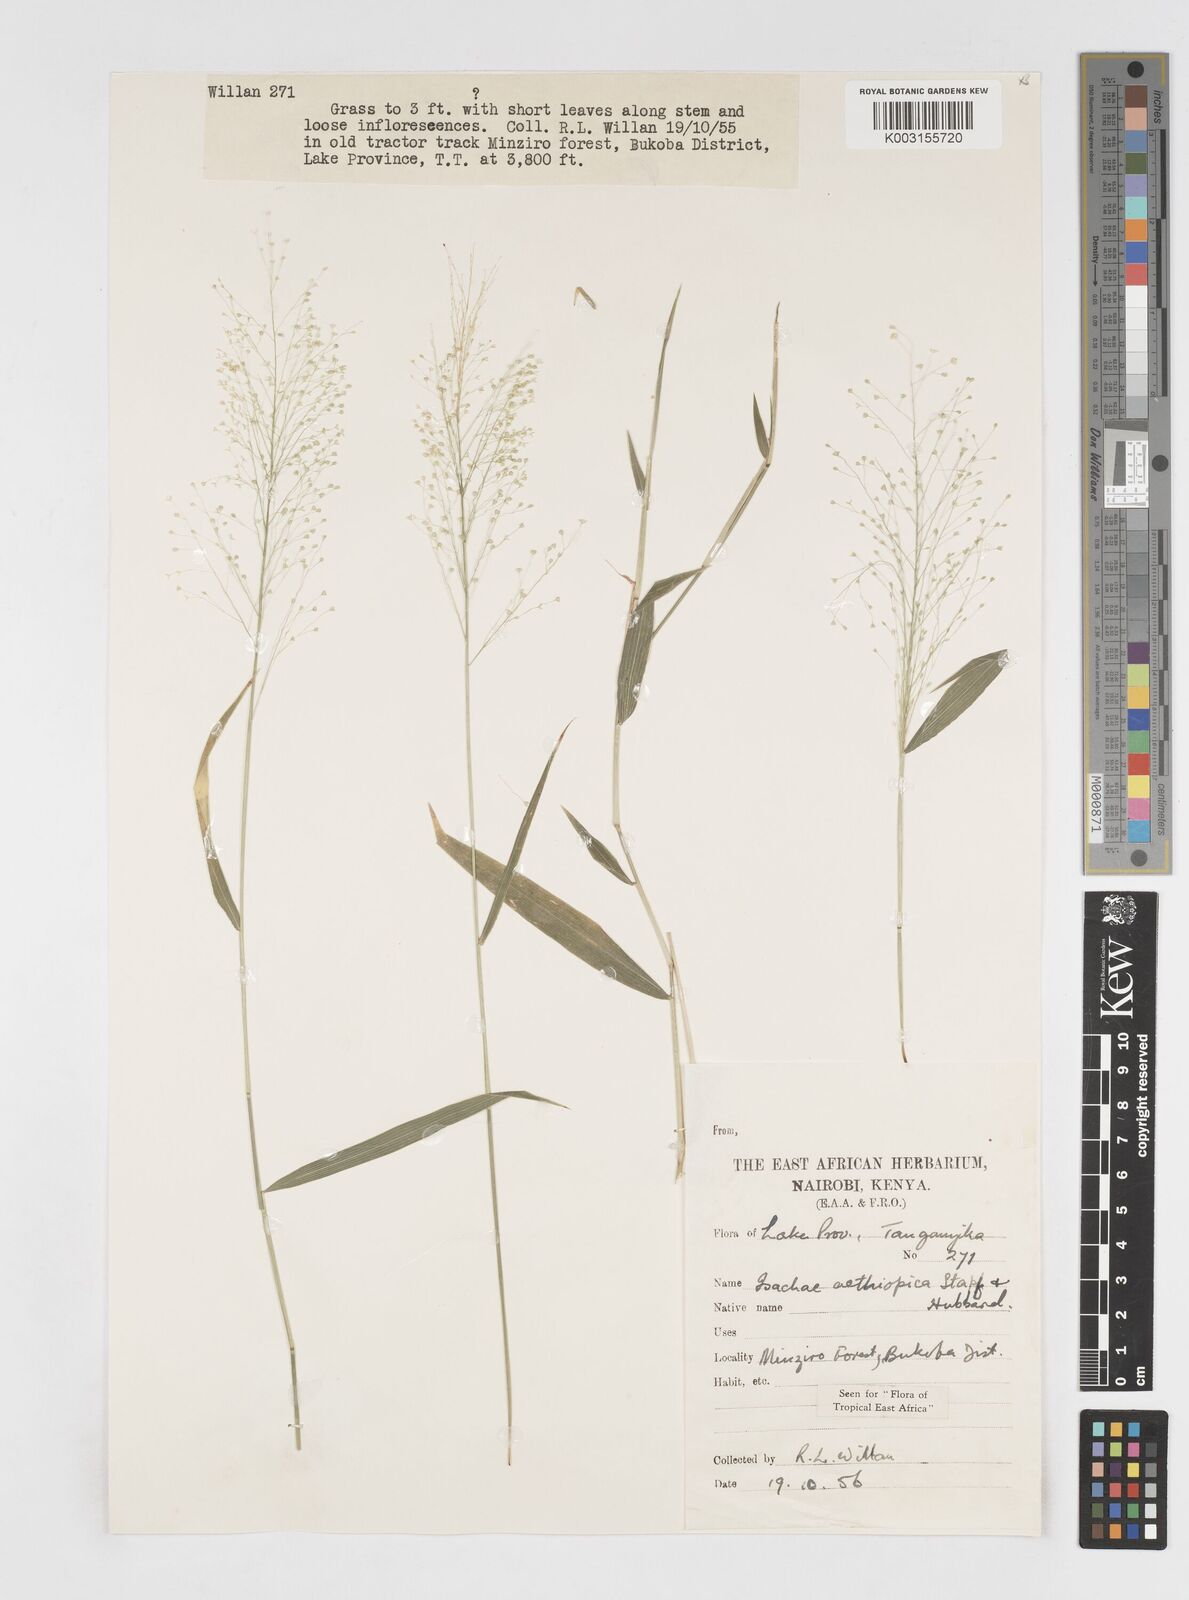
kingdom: Plantae
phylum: Tracheophyta
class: Liliopsida
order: Poales
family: Poaceae
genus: Isachne
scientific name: Isachne mauritiana
